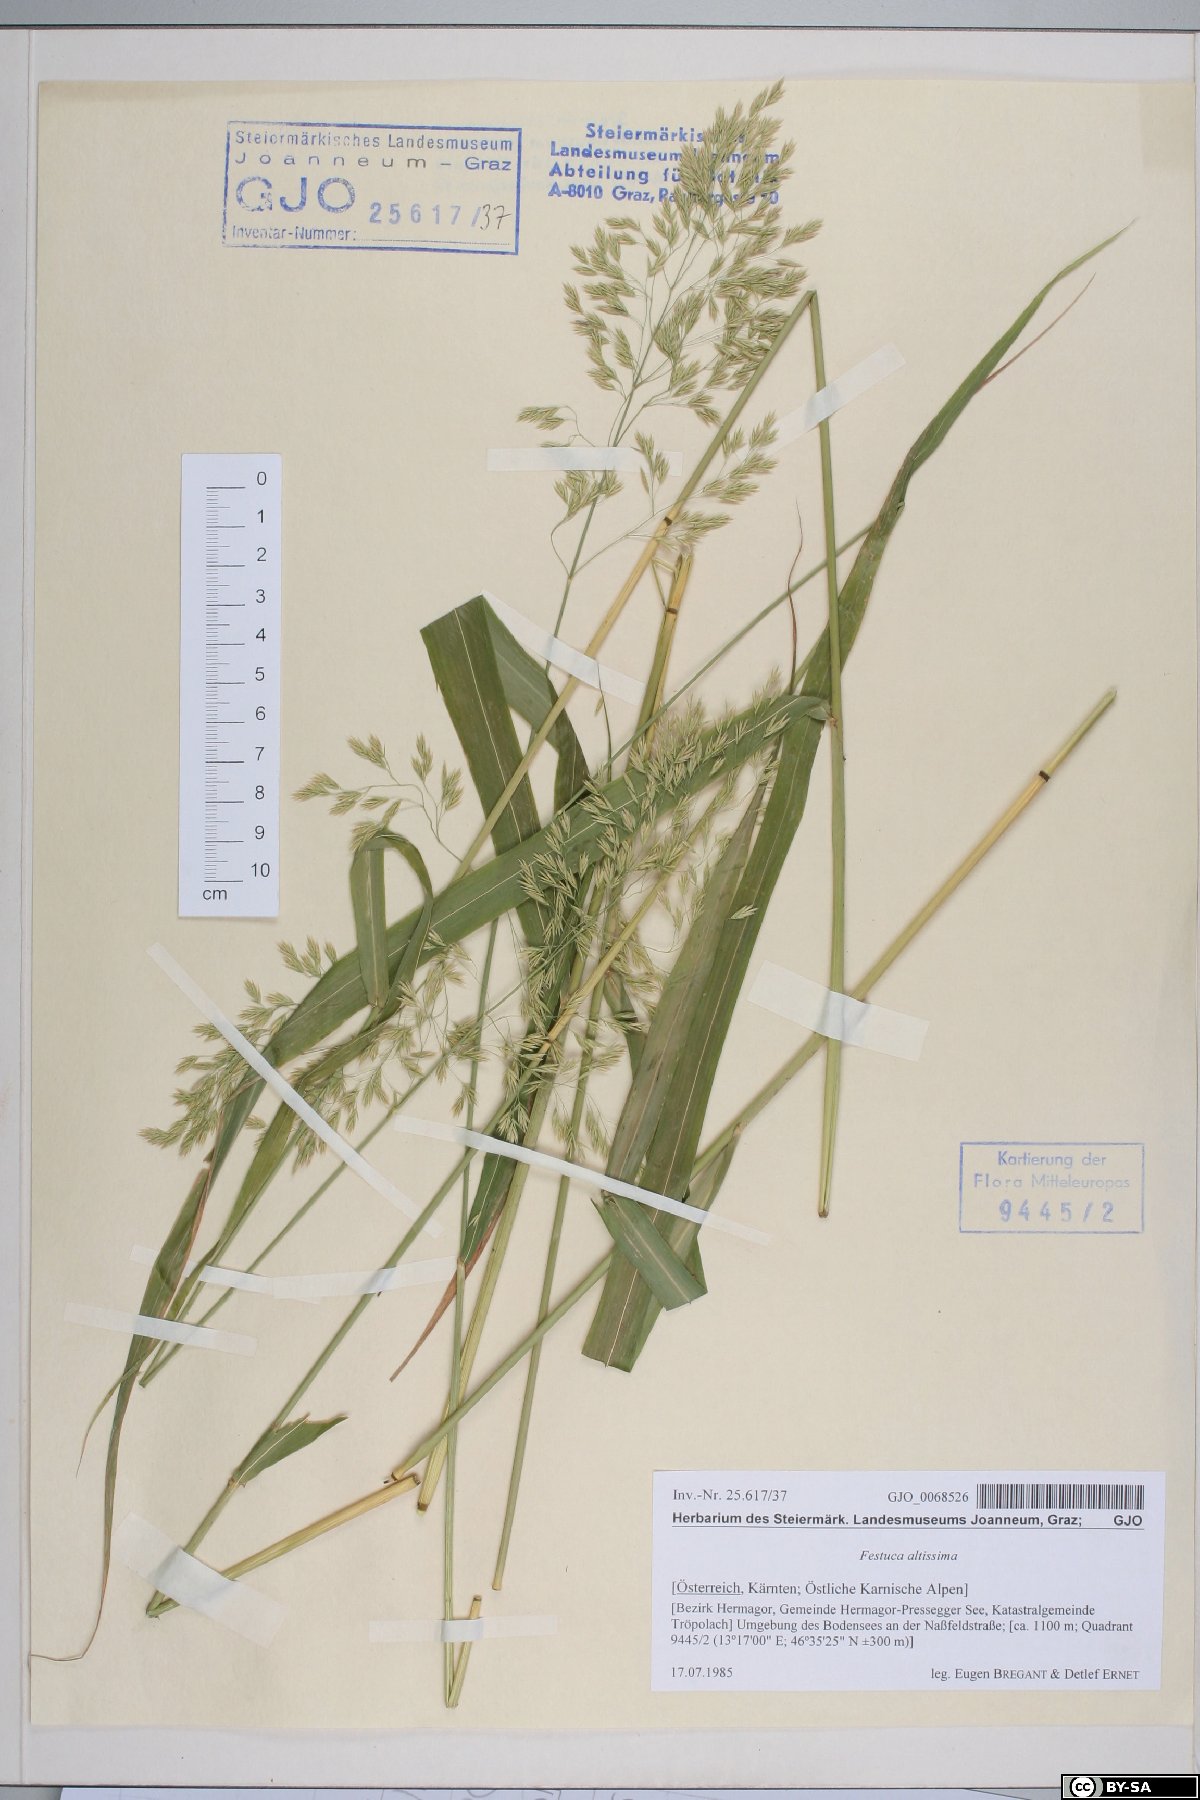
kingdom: Plantae
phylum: Tracheophyta
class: Liliopsida
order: Poales
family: Poaceae
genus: Festuca
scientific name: Festuca altissima
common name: Wood fescue
